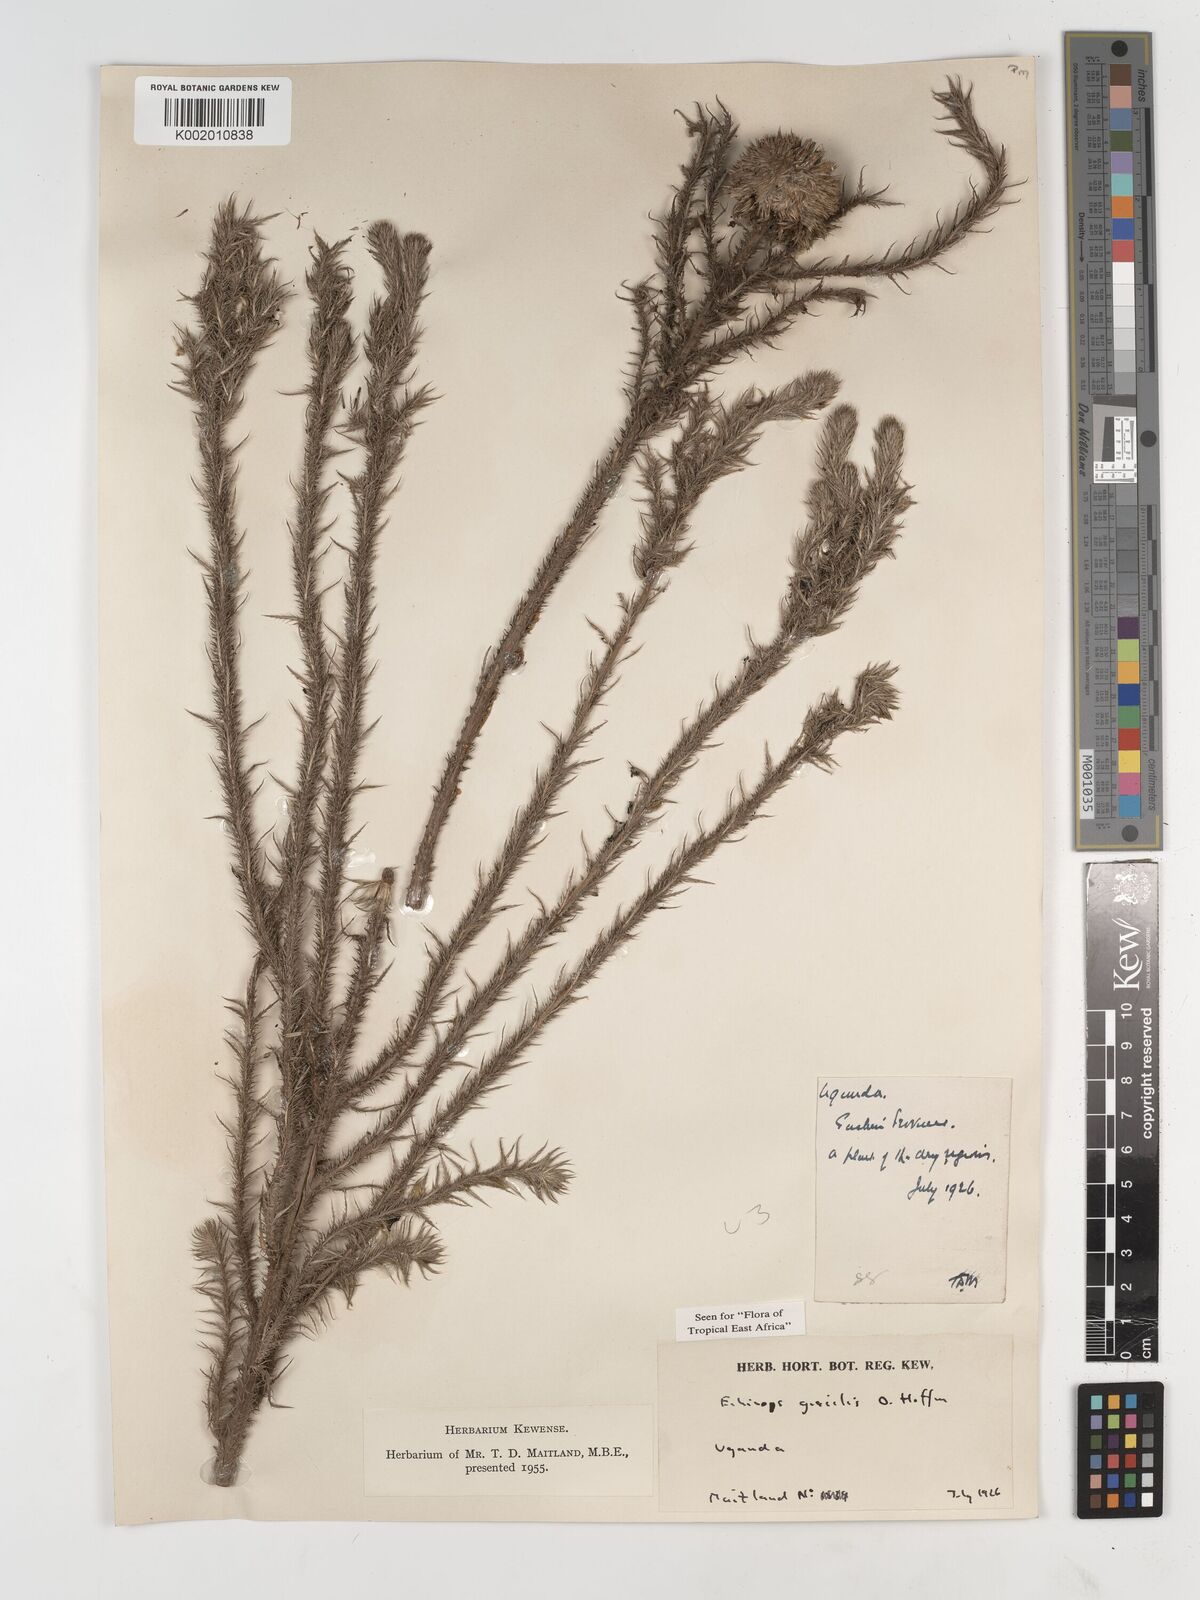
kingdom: Plantae
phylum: Tracheophyta
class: Magnoliopsida
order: Asterales
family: Asteraceae
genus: Echinops
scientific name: Echinops gracilis
